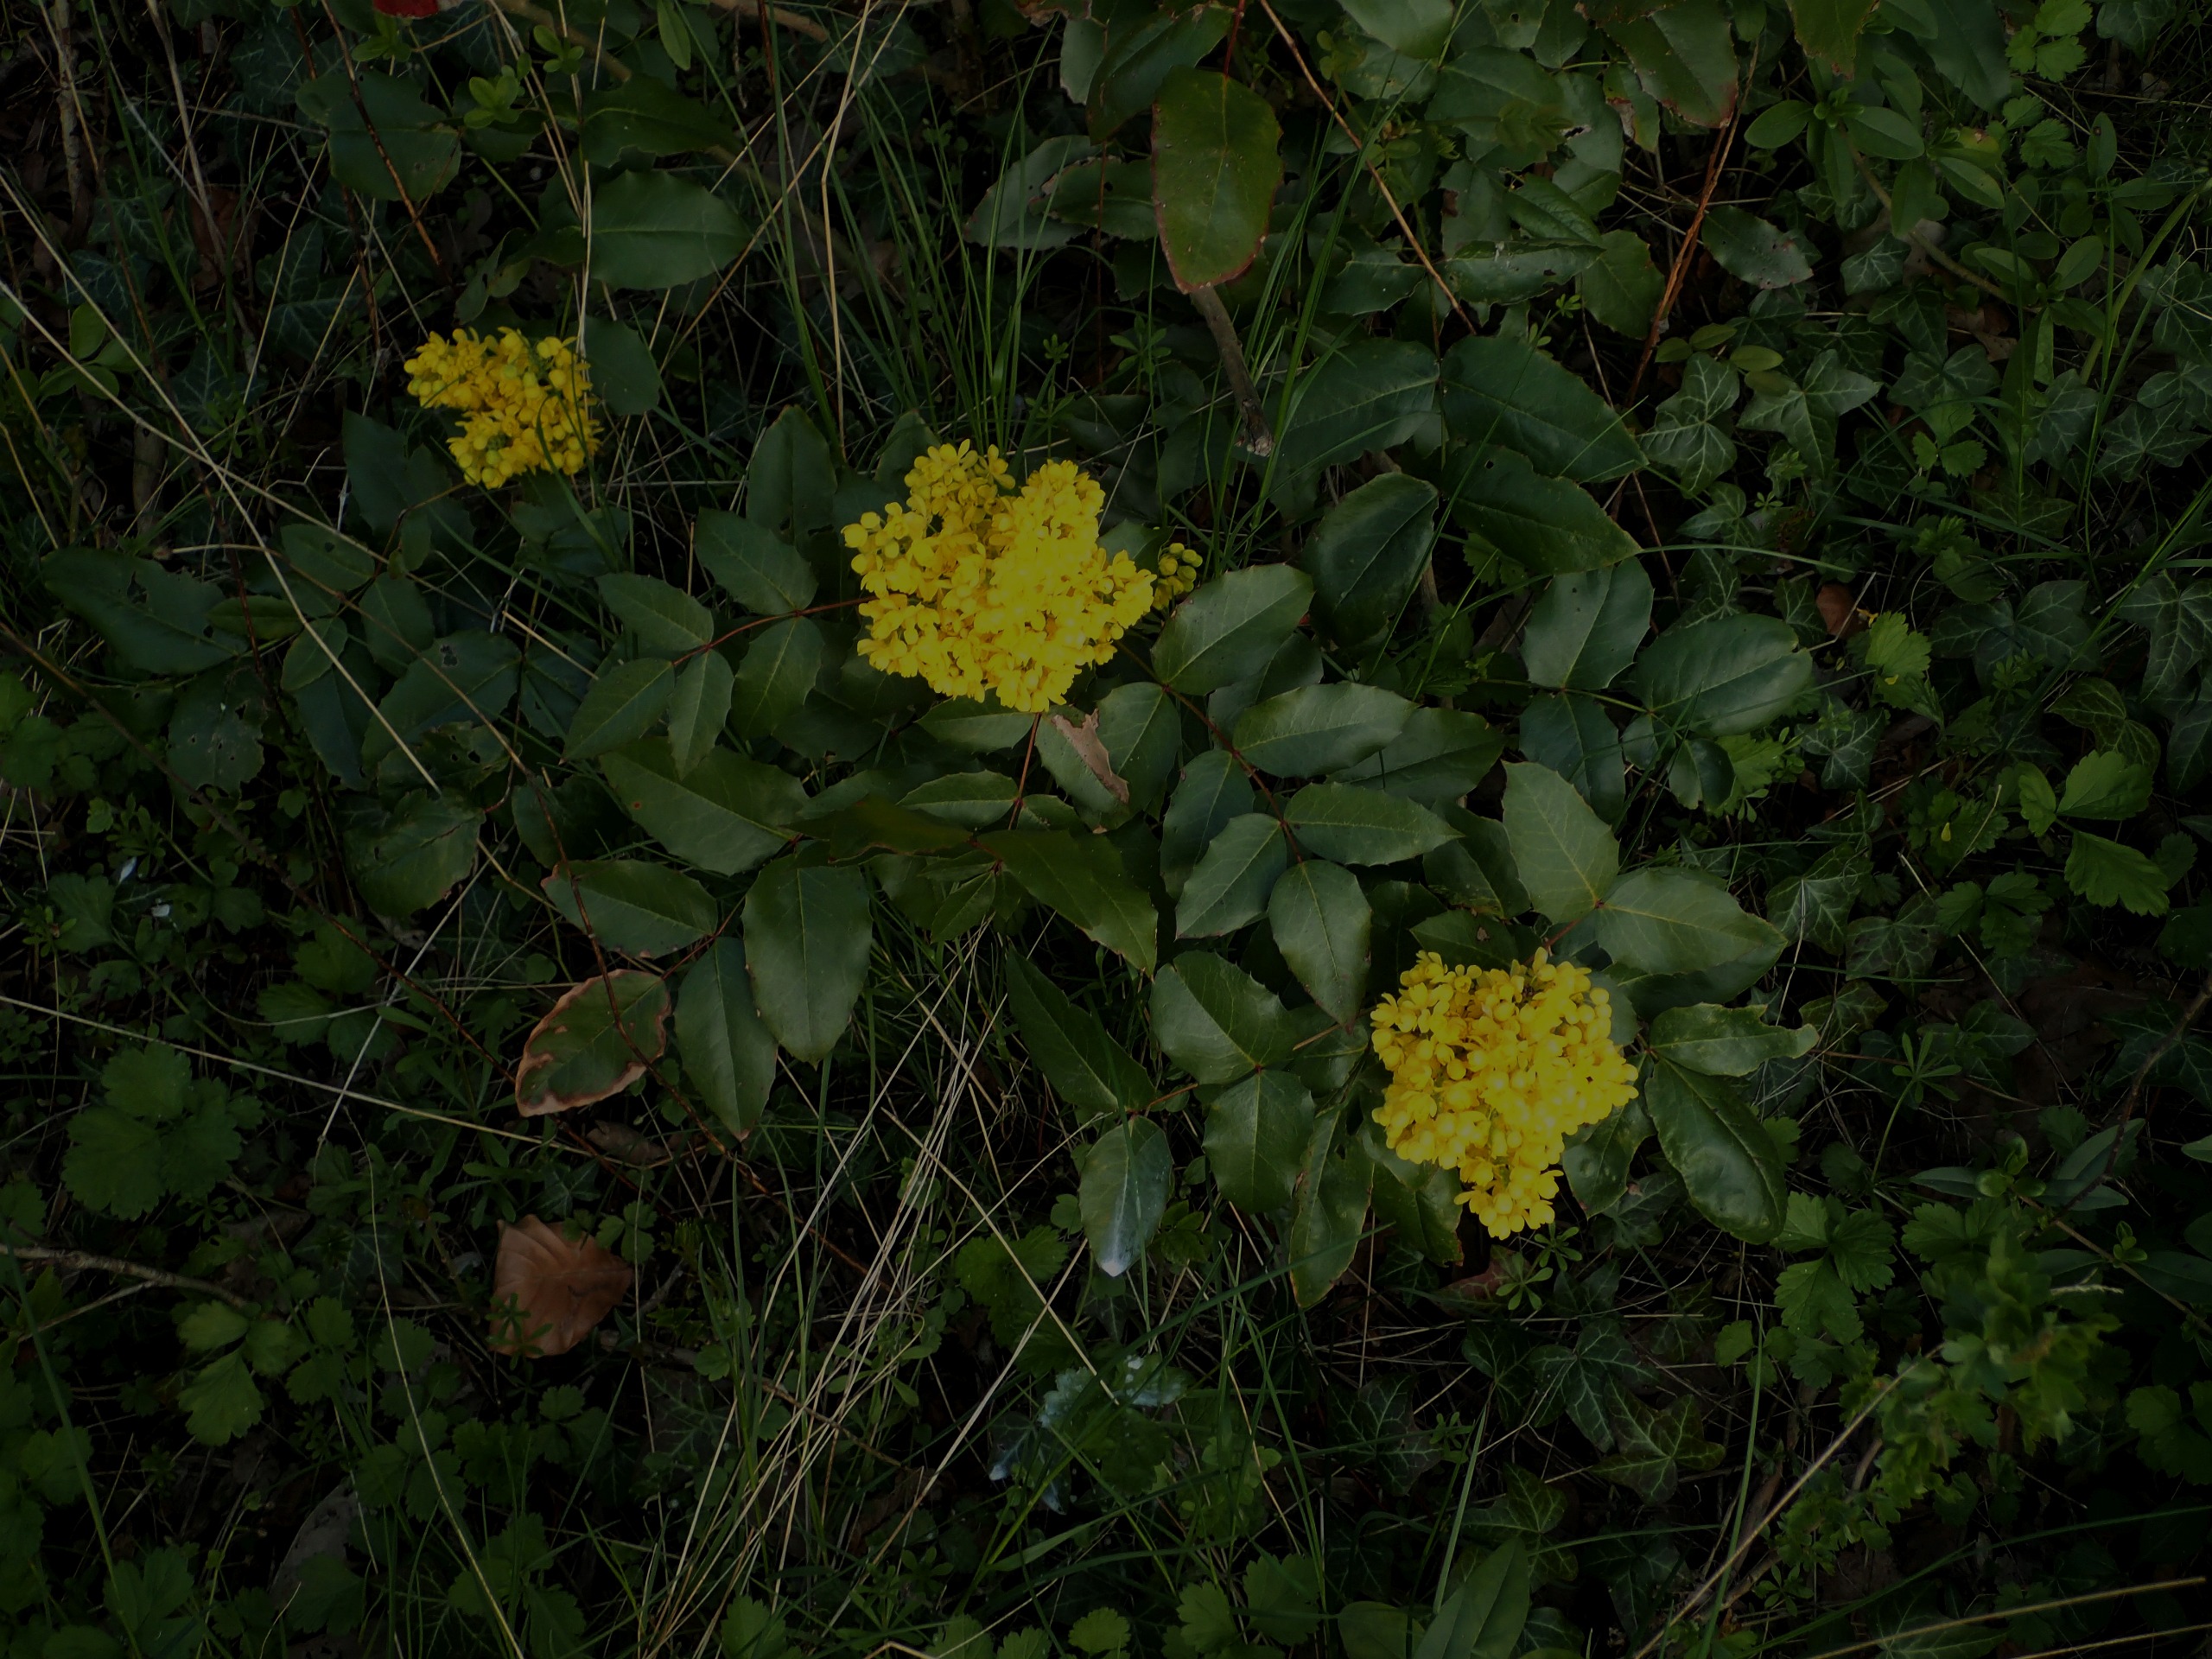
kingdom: Plantae
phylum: Tracheophyta
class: Magnoliopsida
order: Ranunculales
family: Berberidaceae
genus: Mahonia
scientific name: Mahonia aquifolium
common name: Almindelig mahonie
